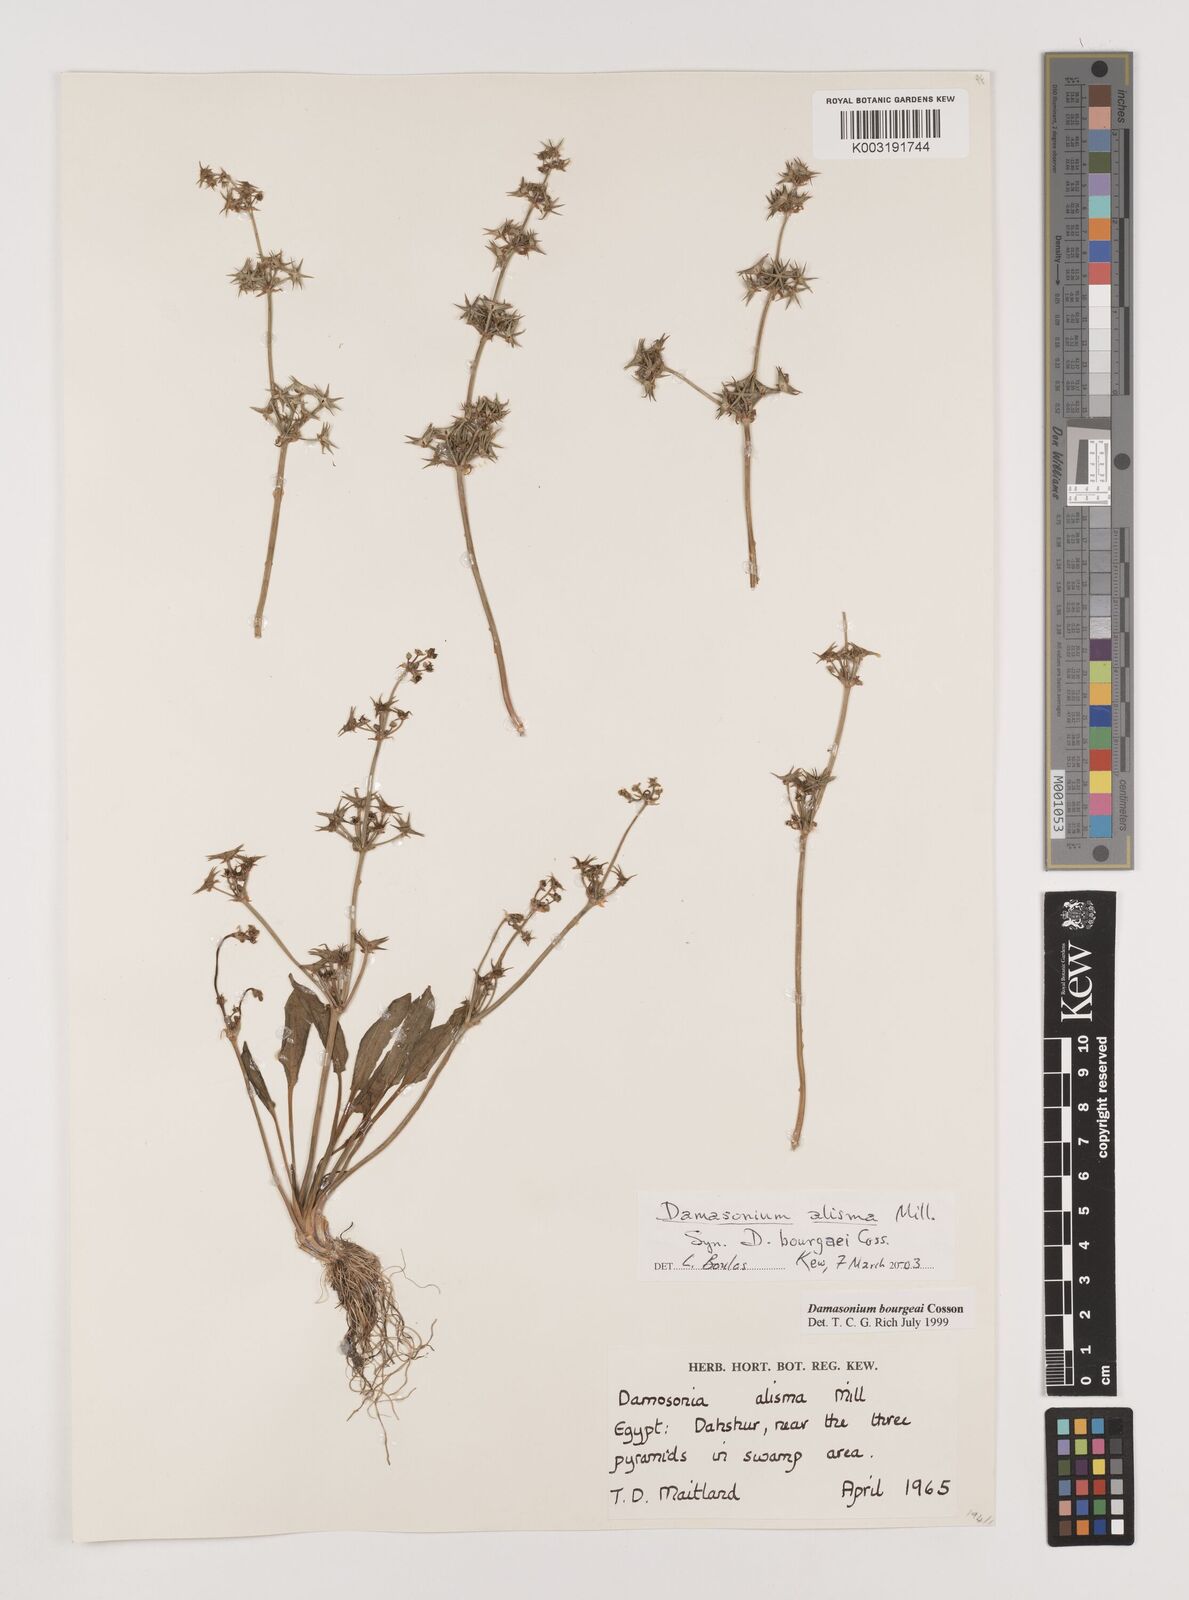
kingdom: Plantae
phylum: Tracheophyta
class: Liliopsida
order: Alismatales
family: Alismataceae
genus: Damasonium
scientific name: Damasonium alisma
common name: Starfruit
